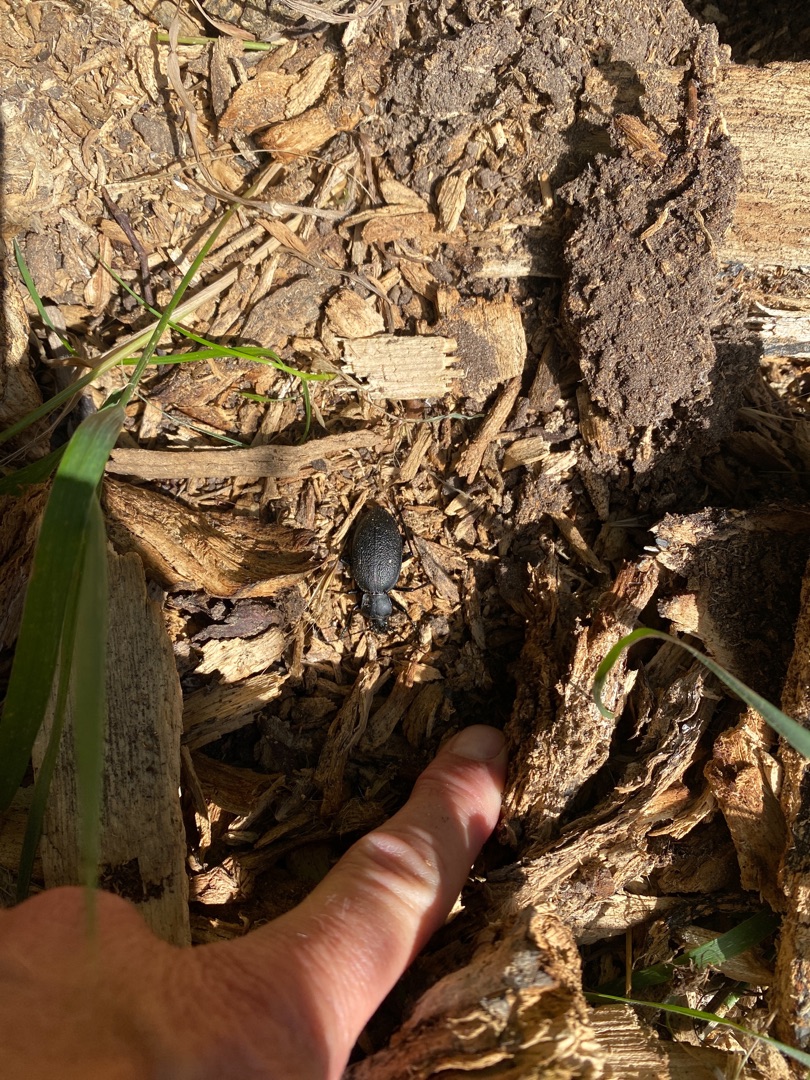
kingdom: Animalia
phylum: Arthropoda
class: Insecta
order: Coleoptera
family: Carabidae
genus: Carabus
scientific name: Carabus coriaceus
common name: Læderløber
